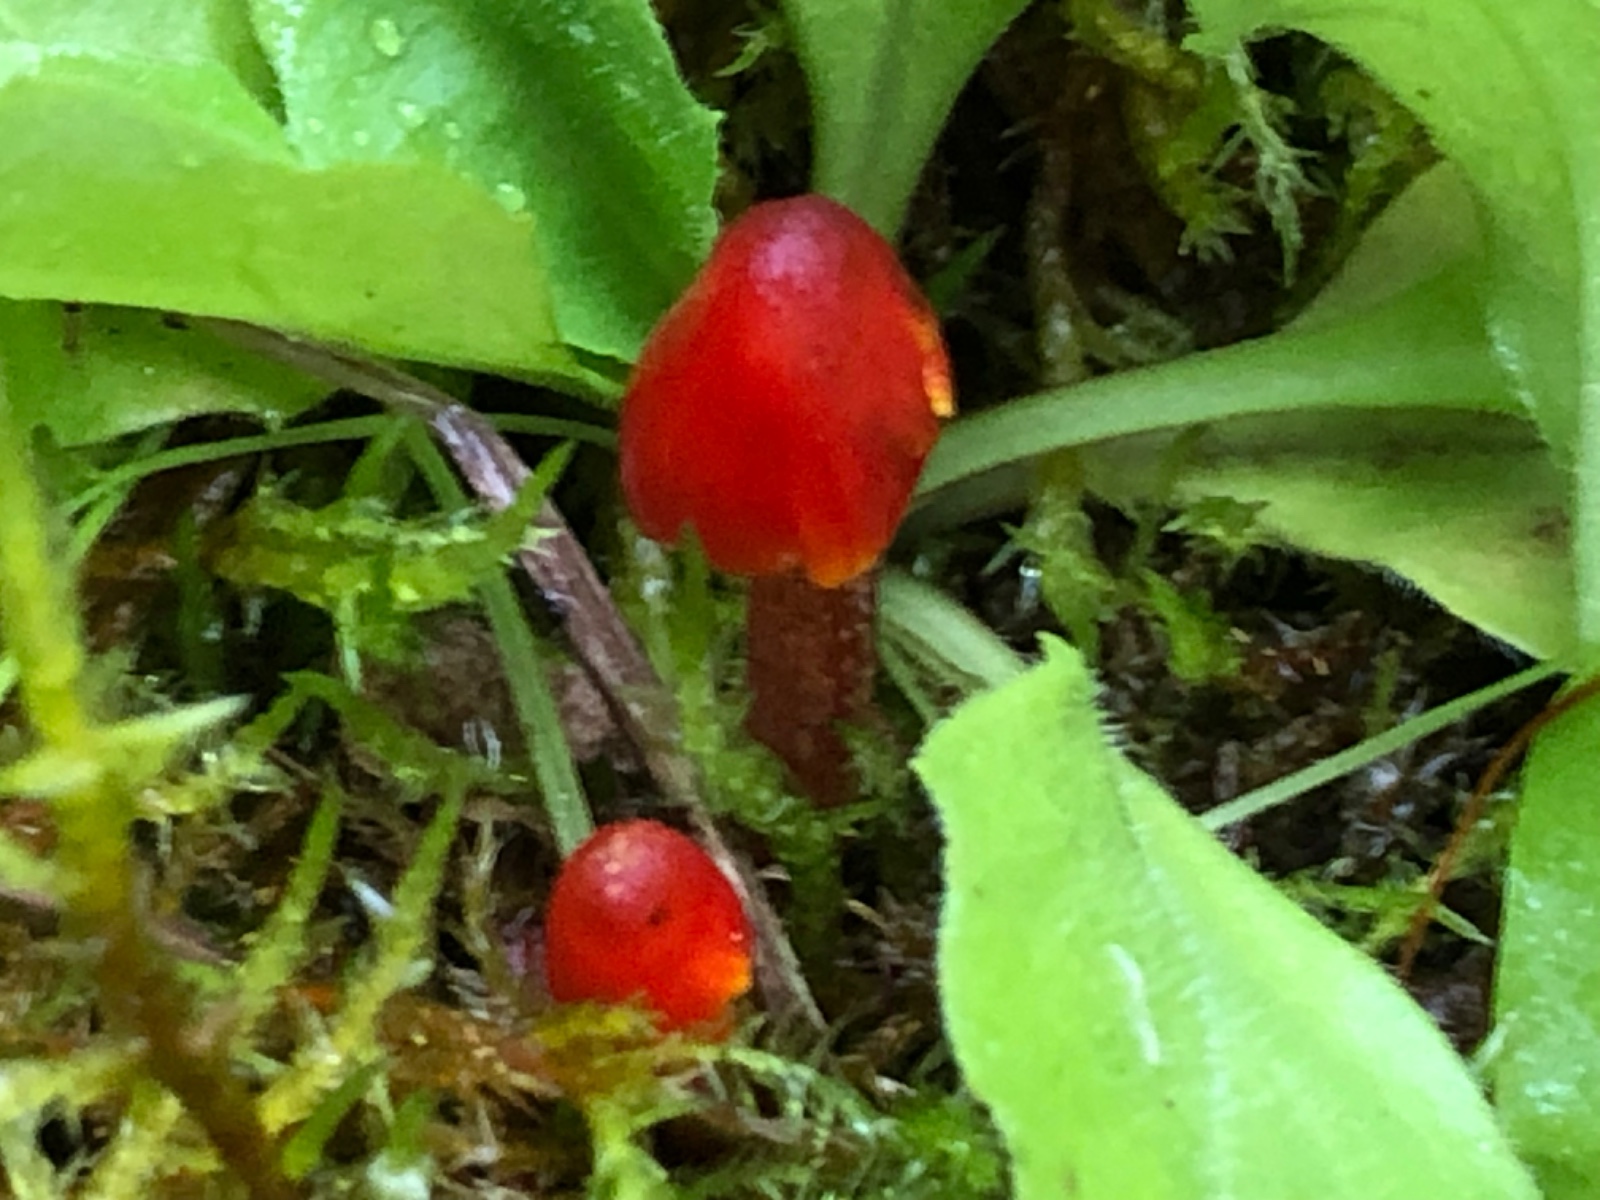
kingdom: Fungi
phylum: Basidiomycota
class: Agaricomycetes
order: Agaricales
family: Hygrophoraceae
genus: Hygrocybe
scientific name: Hygrocybe conica
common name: kegle-vokshat
